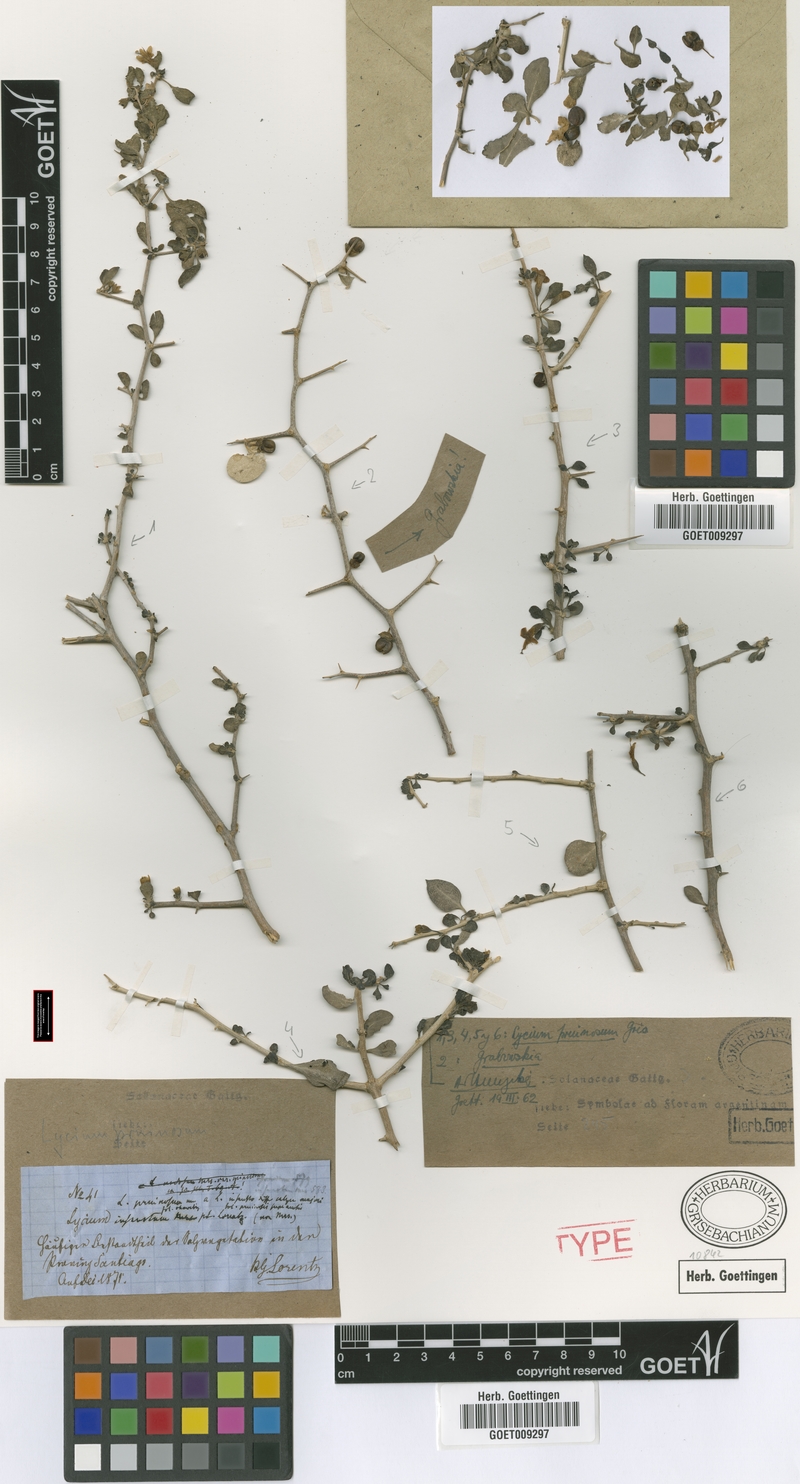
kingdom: Plantae
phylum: Tracheophyta
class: Magnoliopsida
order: Solanales
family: Solanaceae
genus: Lycium
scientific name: Lycium americanum
